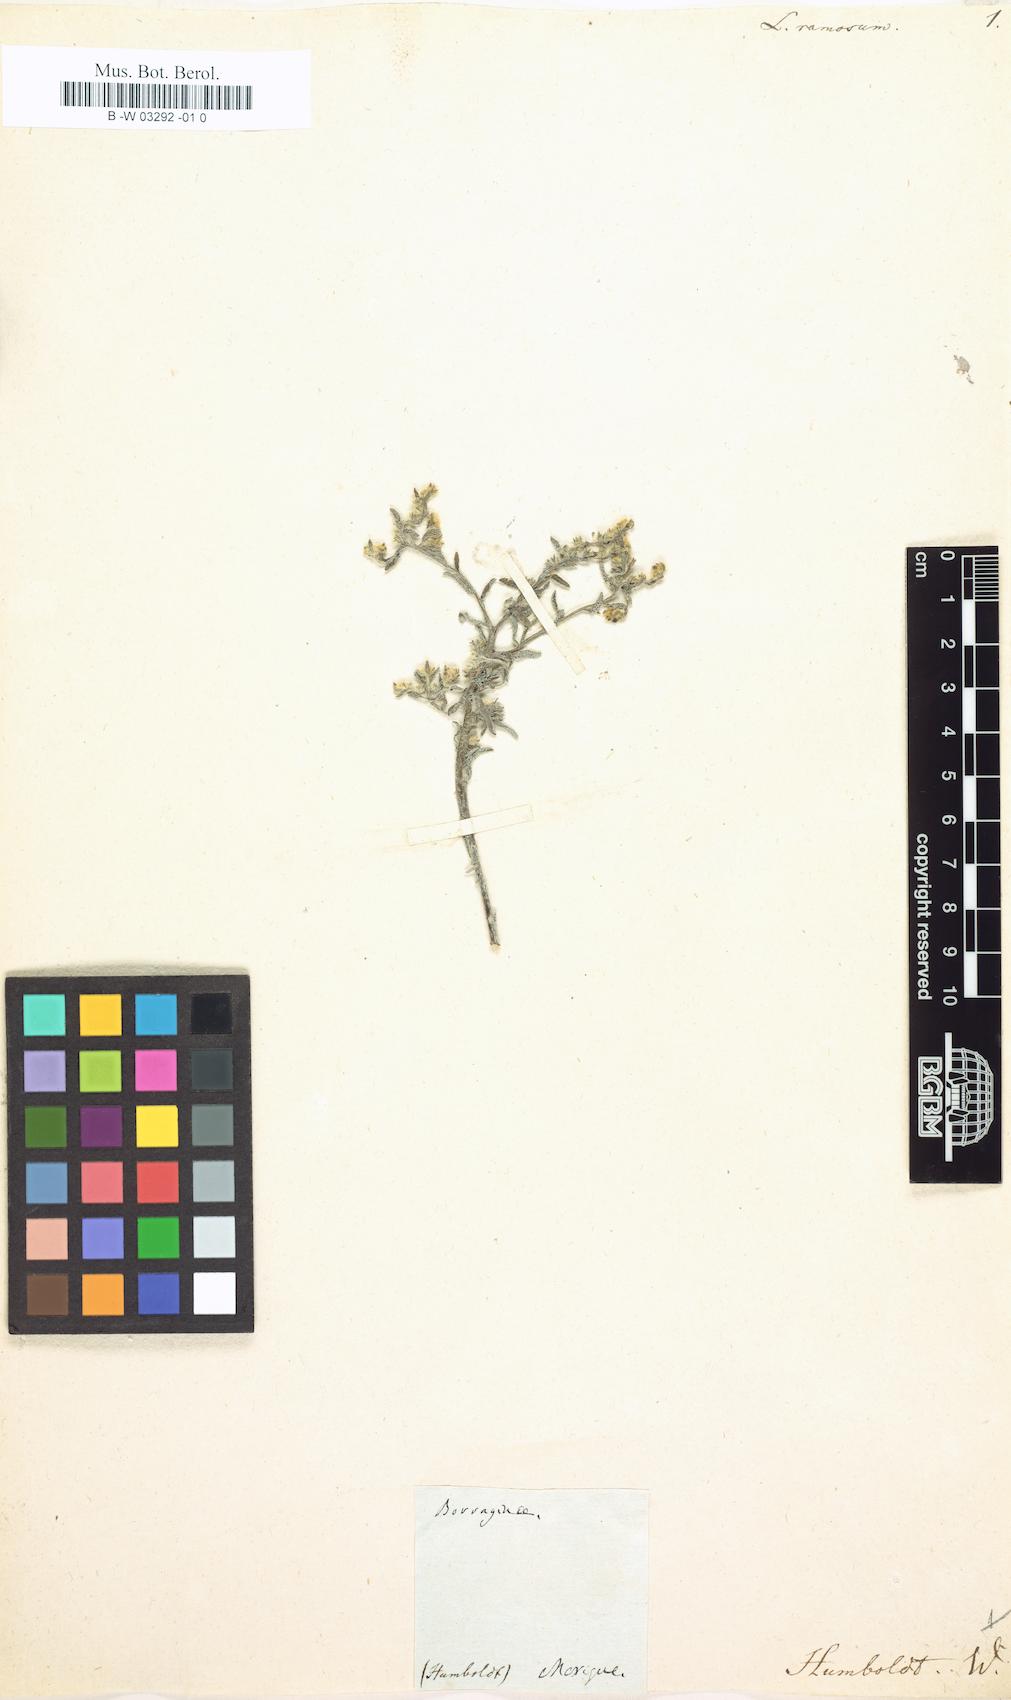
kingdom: Plantae
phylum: Tracheophyta
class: Magnoliopsida
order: Boraginales
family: Boraginaceae
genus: Johnstonella
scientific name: Johnstonella albida
